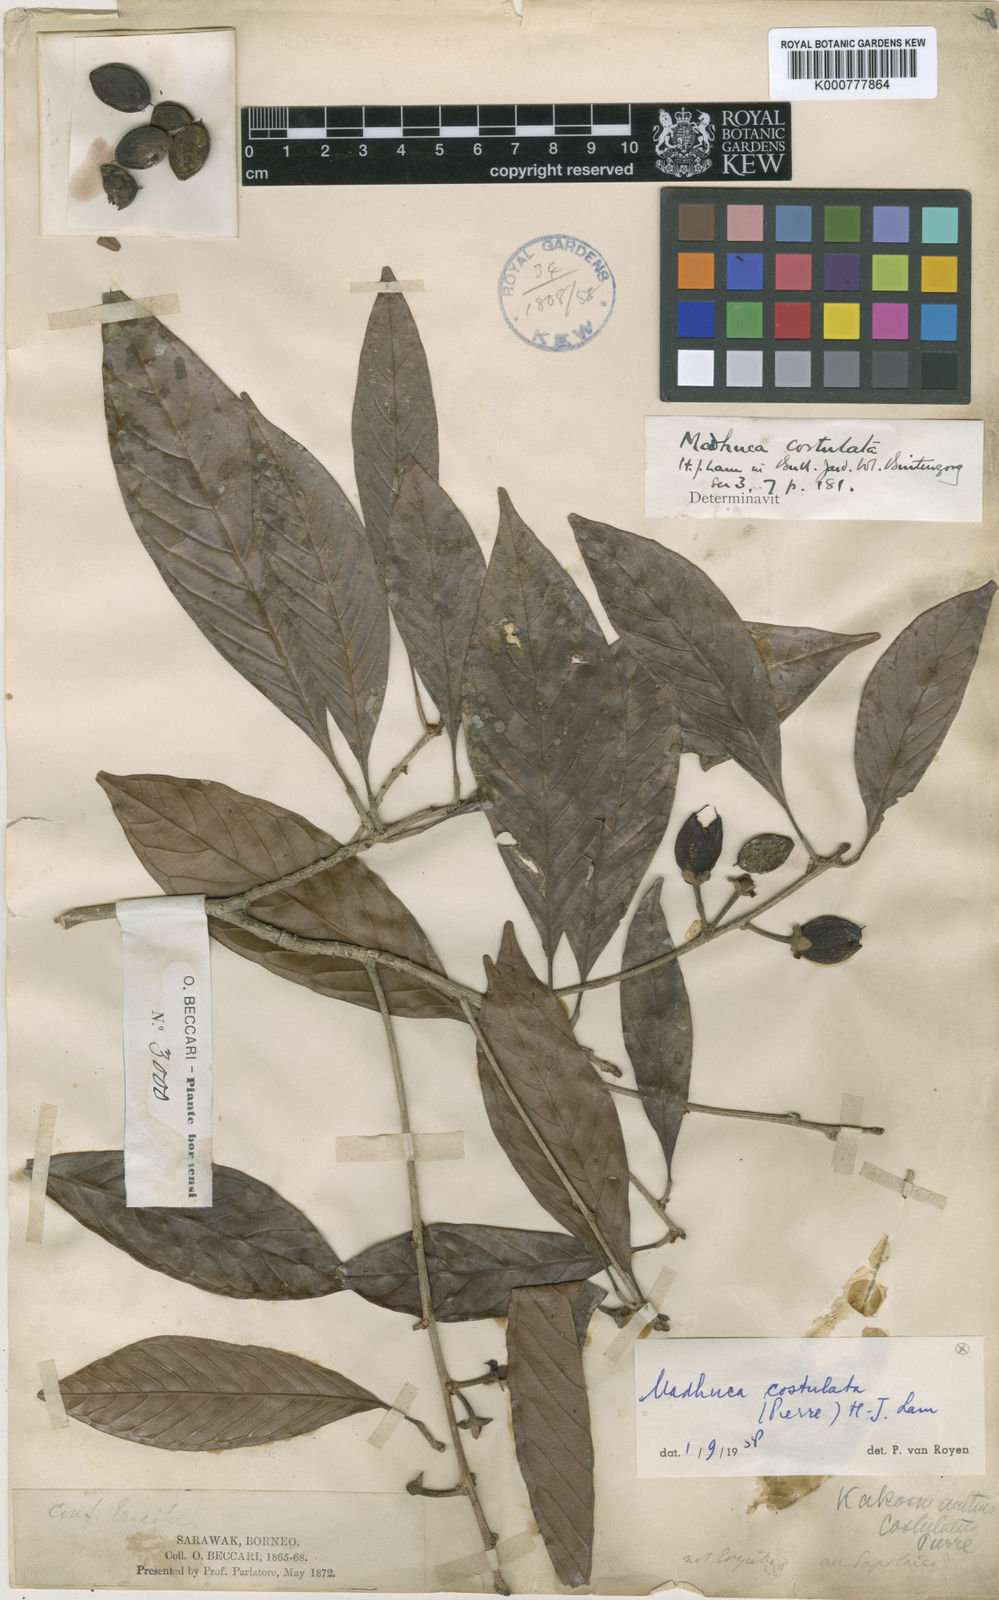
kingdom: Plantae
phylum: Tracheophyta
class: Magnoliopsida
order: Ericales
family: Sapotaceae
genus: Madhuca
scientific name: Madhuca costulata
